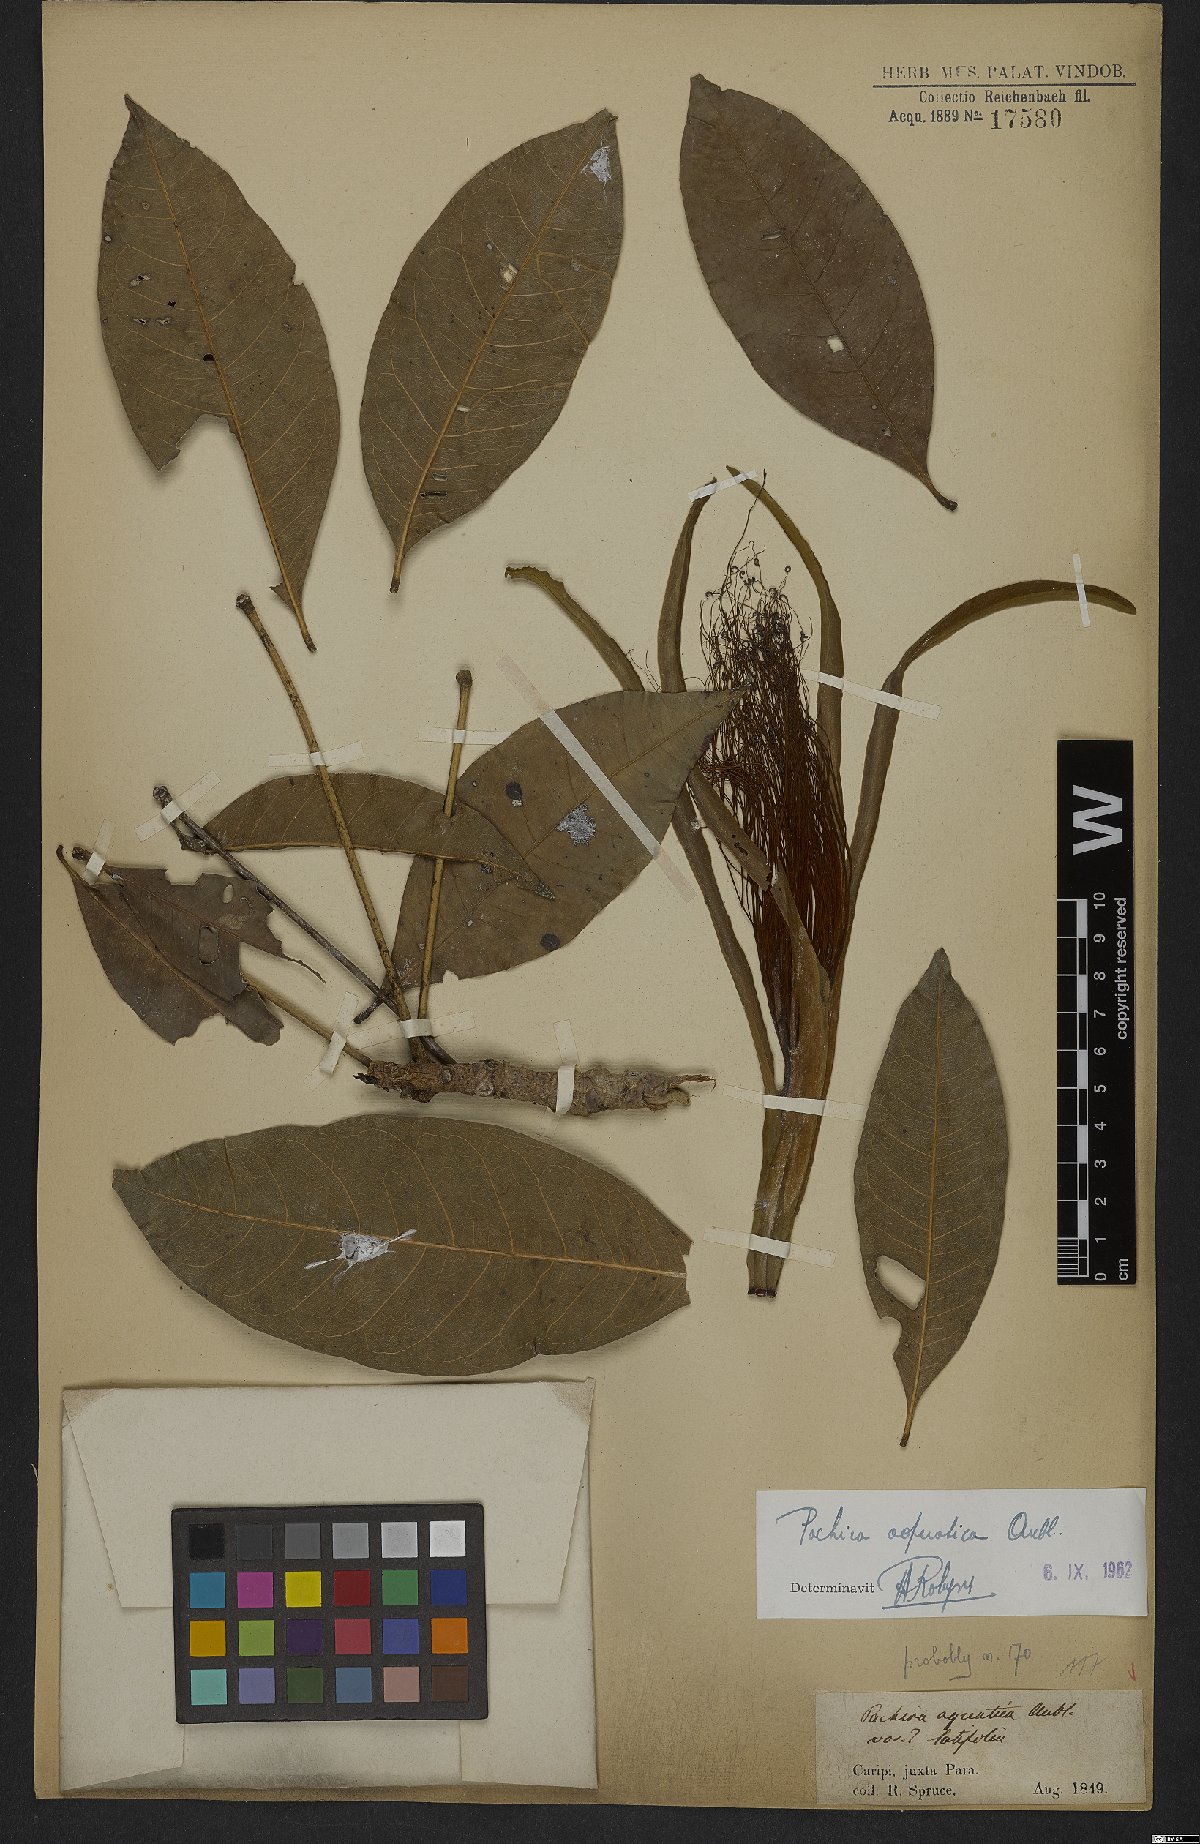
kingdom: Plantae
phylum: Tracheophyta
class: Magnoliopsida
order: Malvales
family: Malvaceae
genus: Pachira
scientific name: Pachira aquatica
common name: Provision-tree
